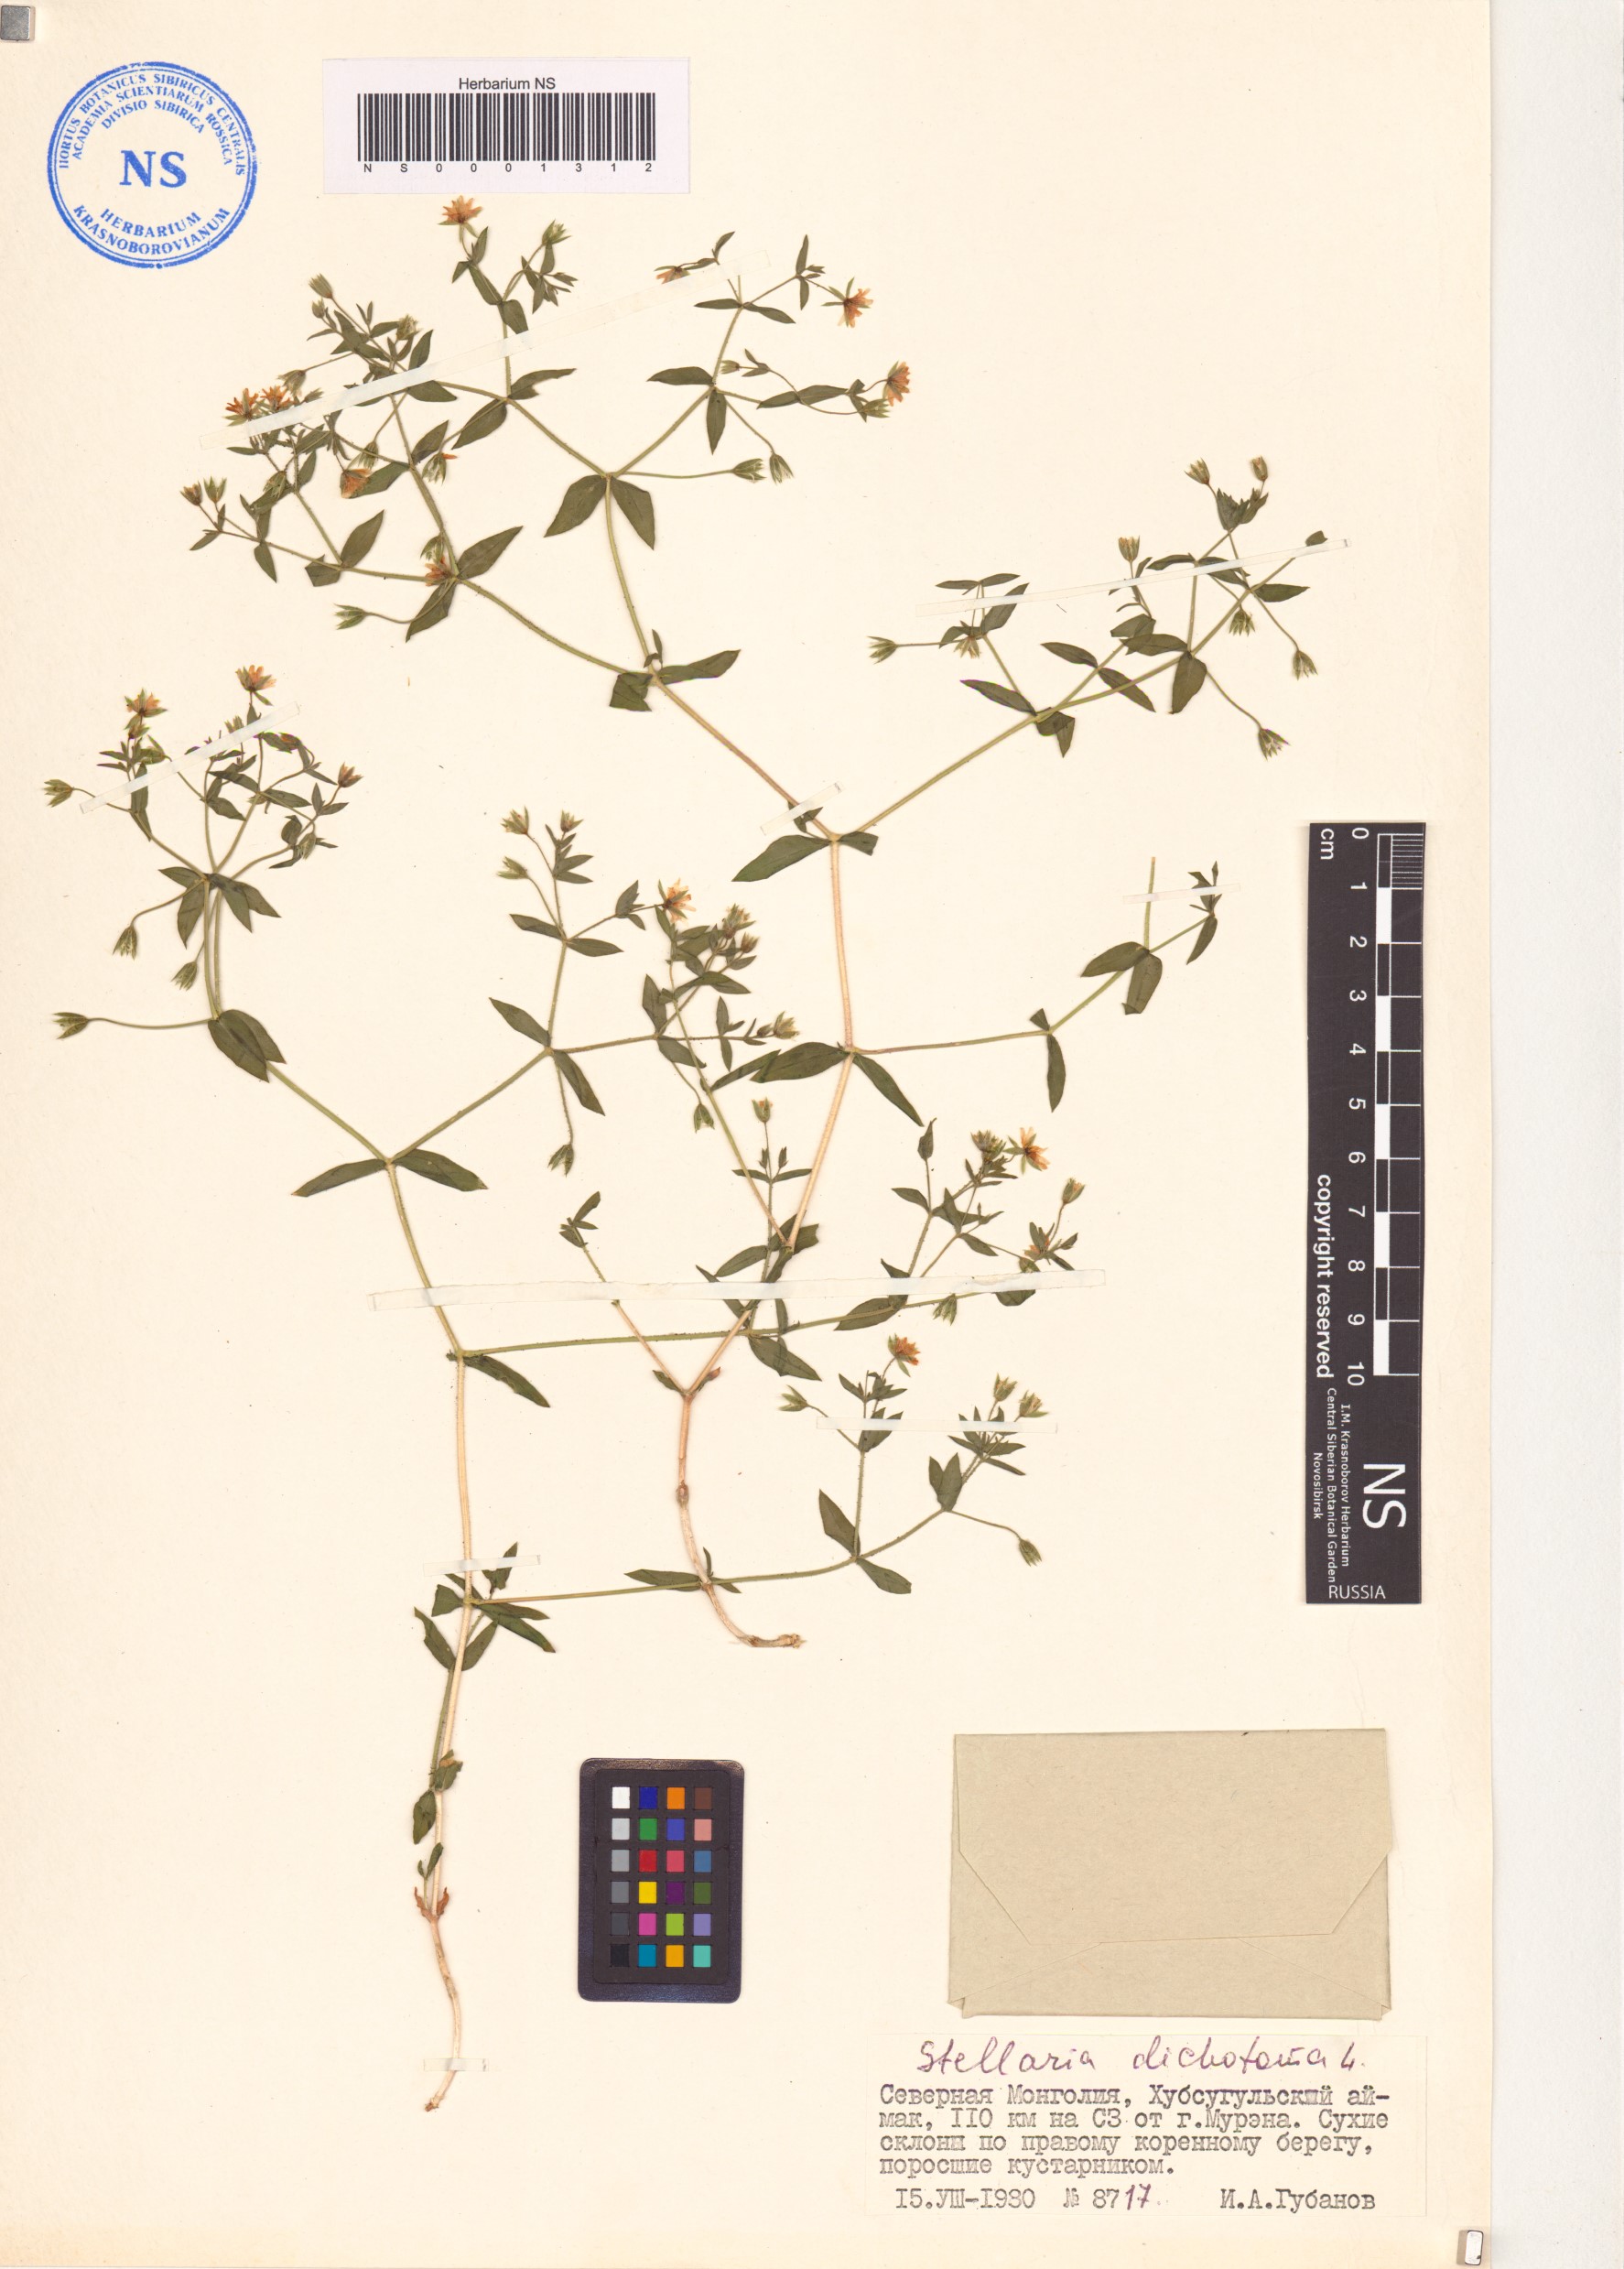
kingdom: Plantae
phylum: Tracheophyta
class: Magnoliopsida
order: Caryophyllales
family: Caryophyllaceae
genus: Mesostemma
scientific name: Mesostemma dichotomum
